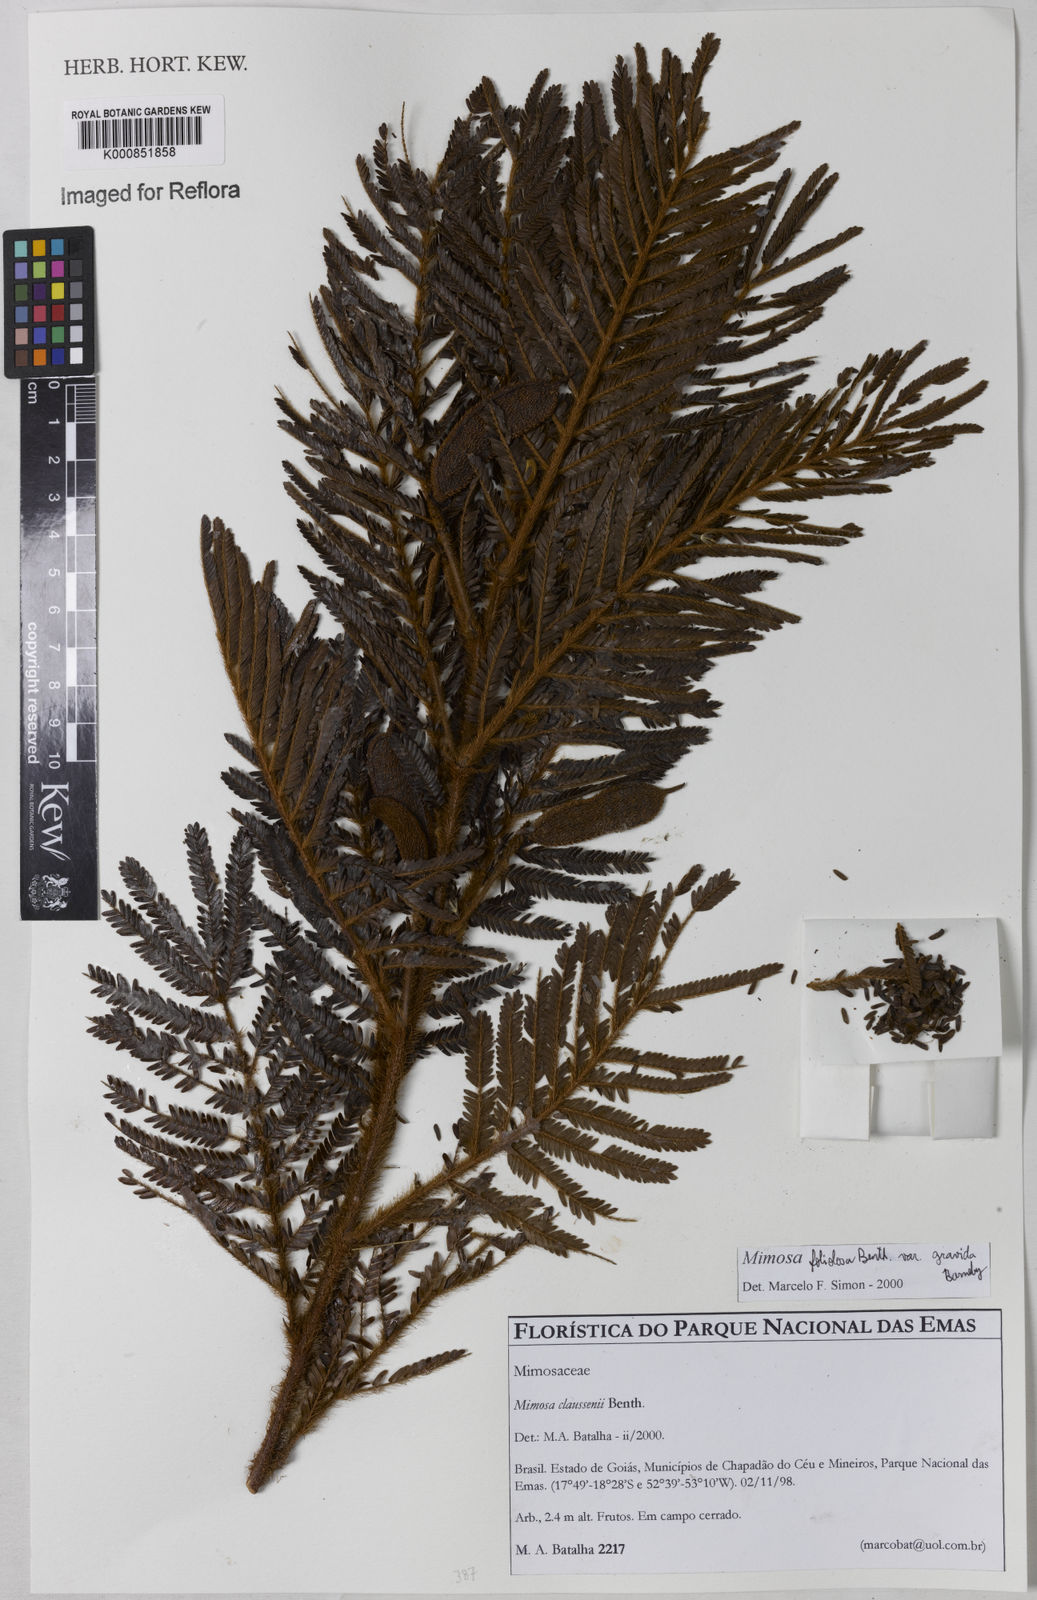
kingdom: Plantae
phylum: Tracheophyta
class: Magnoliopsida
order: Fabales
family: Fabaceae
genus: Mimosa
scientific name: Mimosa foliolosa
